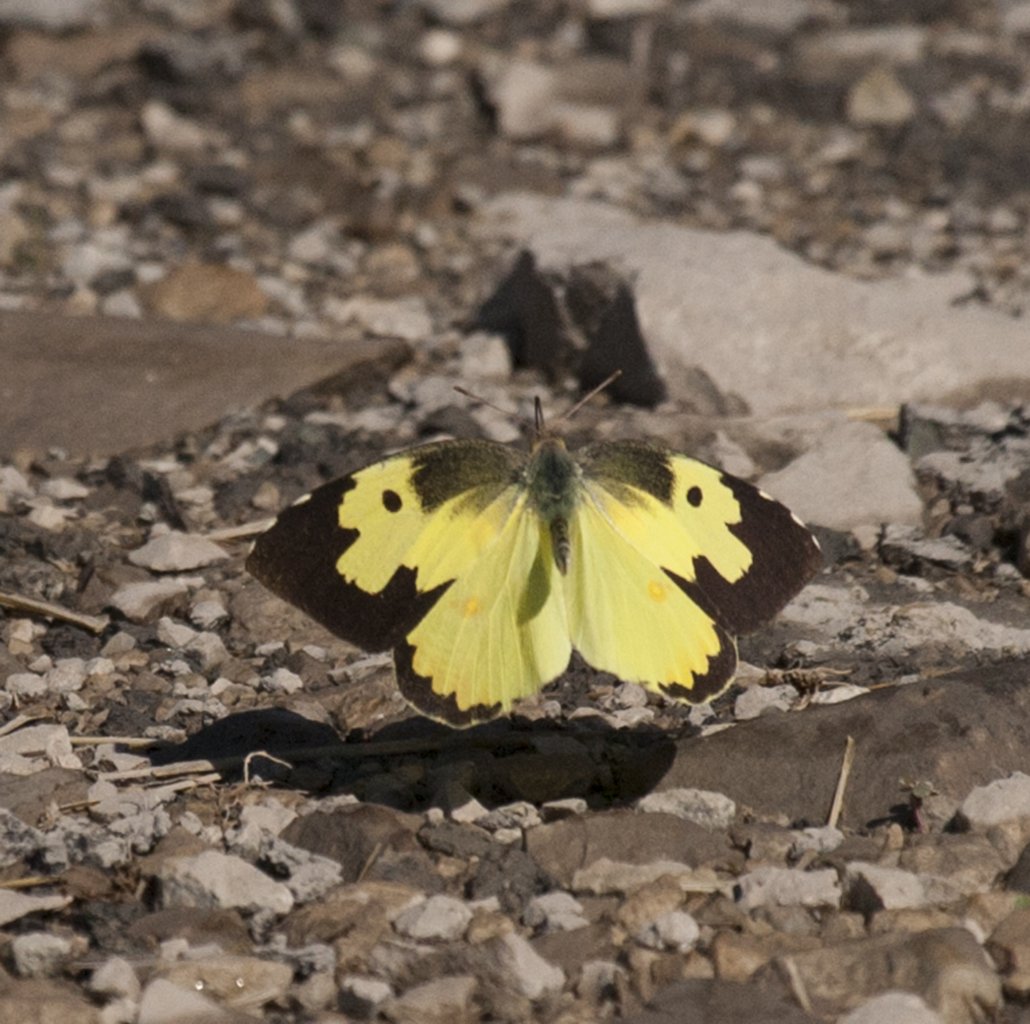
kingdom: Animalia
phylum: Arthropoda
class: Insecta
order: Lepidoptera
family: Pieridae
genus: Zerene
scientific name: Zerene cesonia
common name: Southern Dogface
